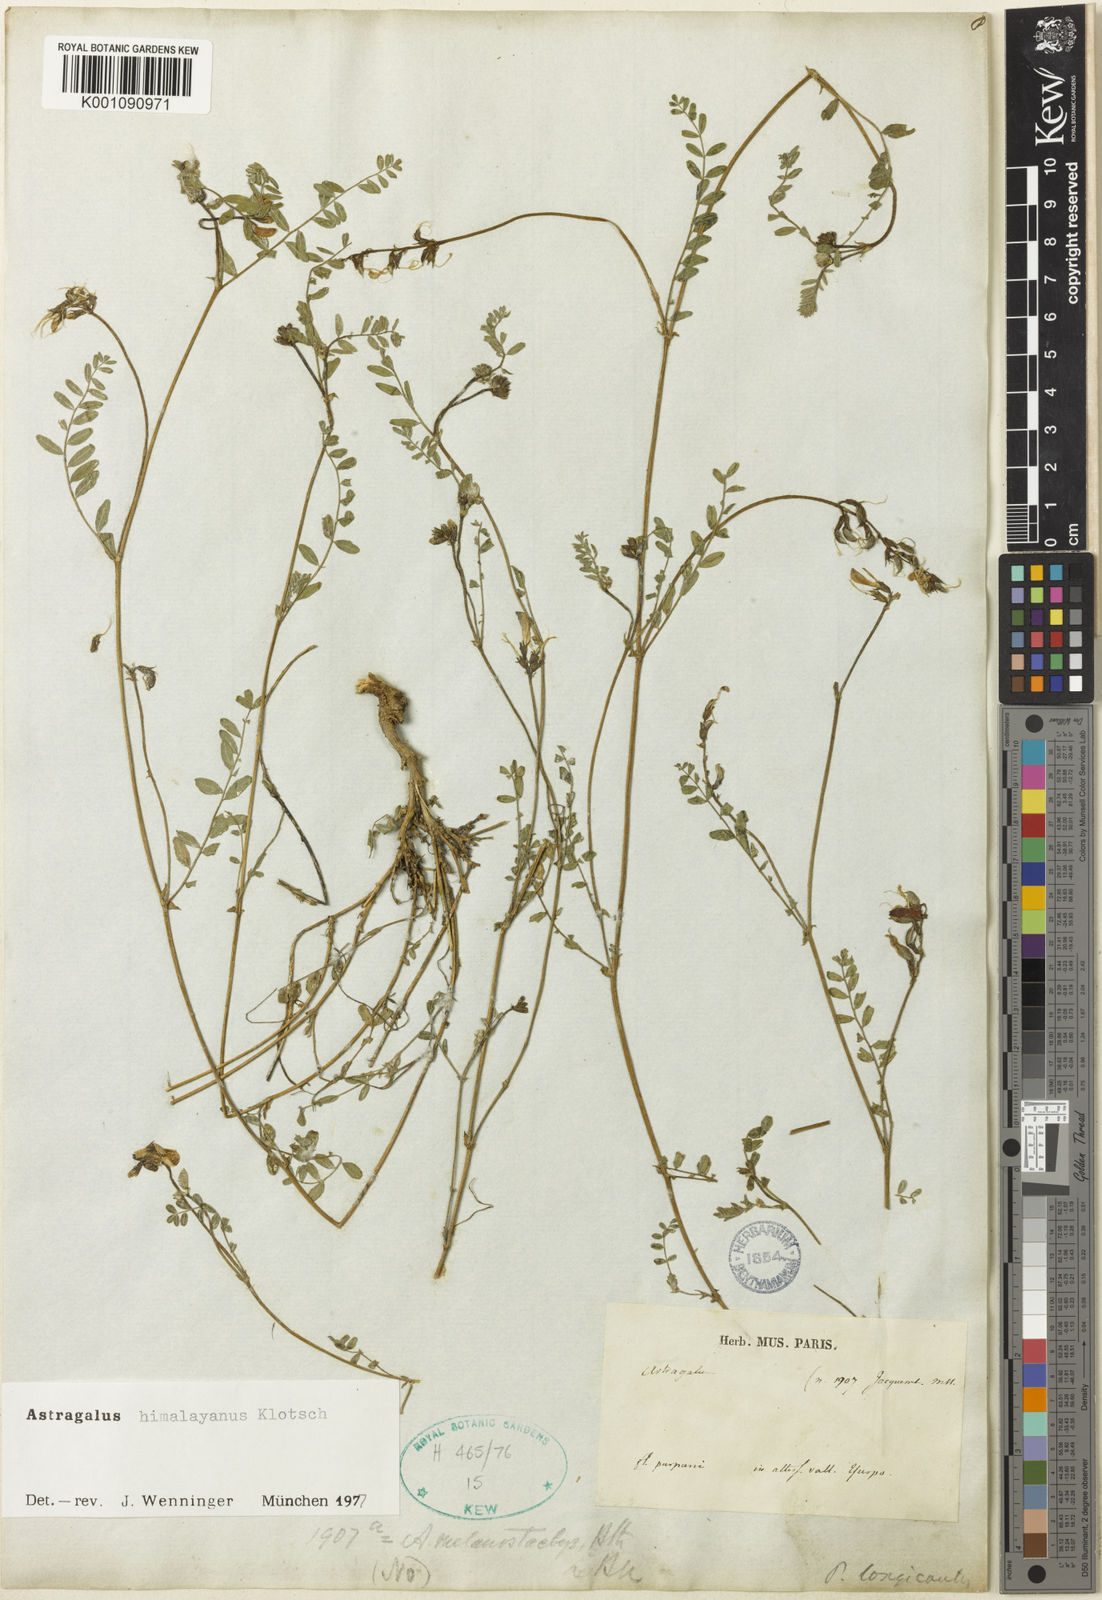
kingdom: Plantae
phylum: Tracheophyta
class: Magnoliopsida
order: Fabales
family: Fabaceae
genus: Astragalus
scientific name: Astragalus
